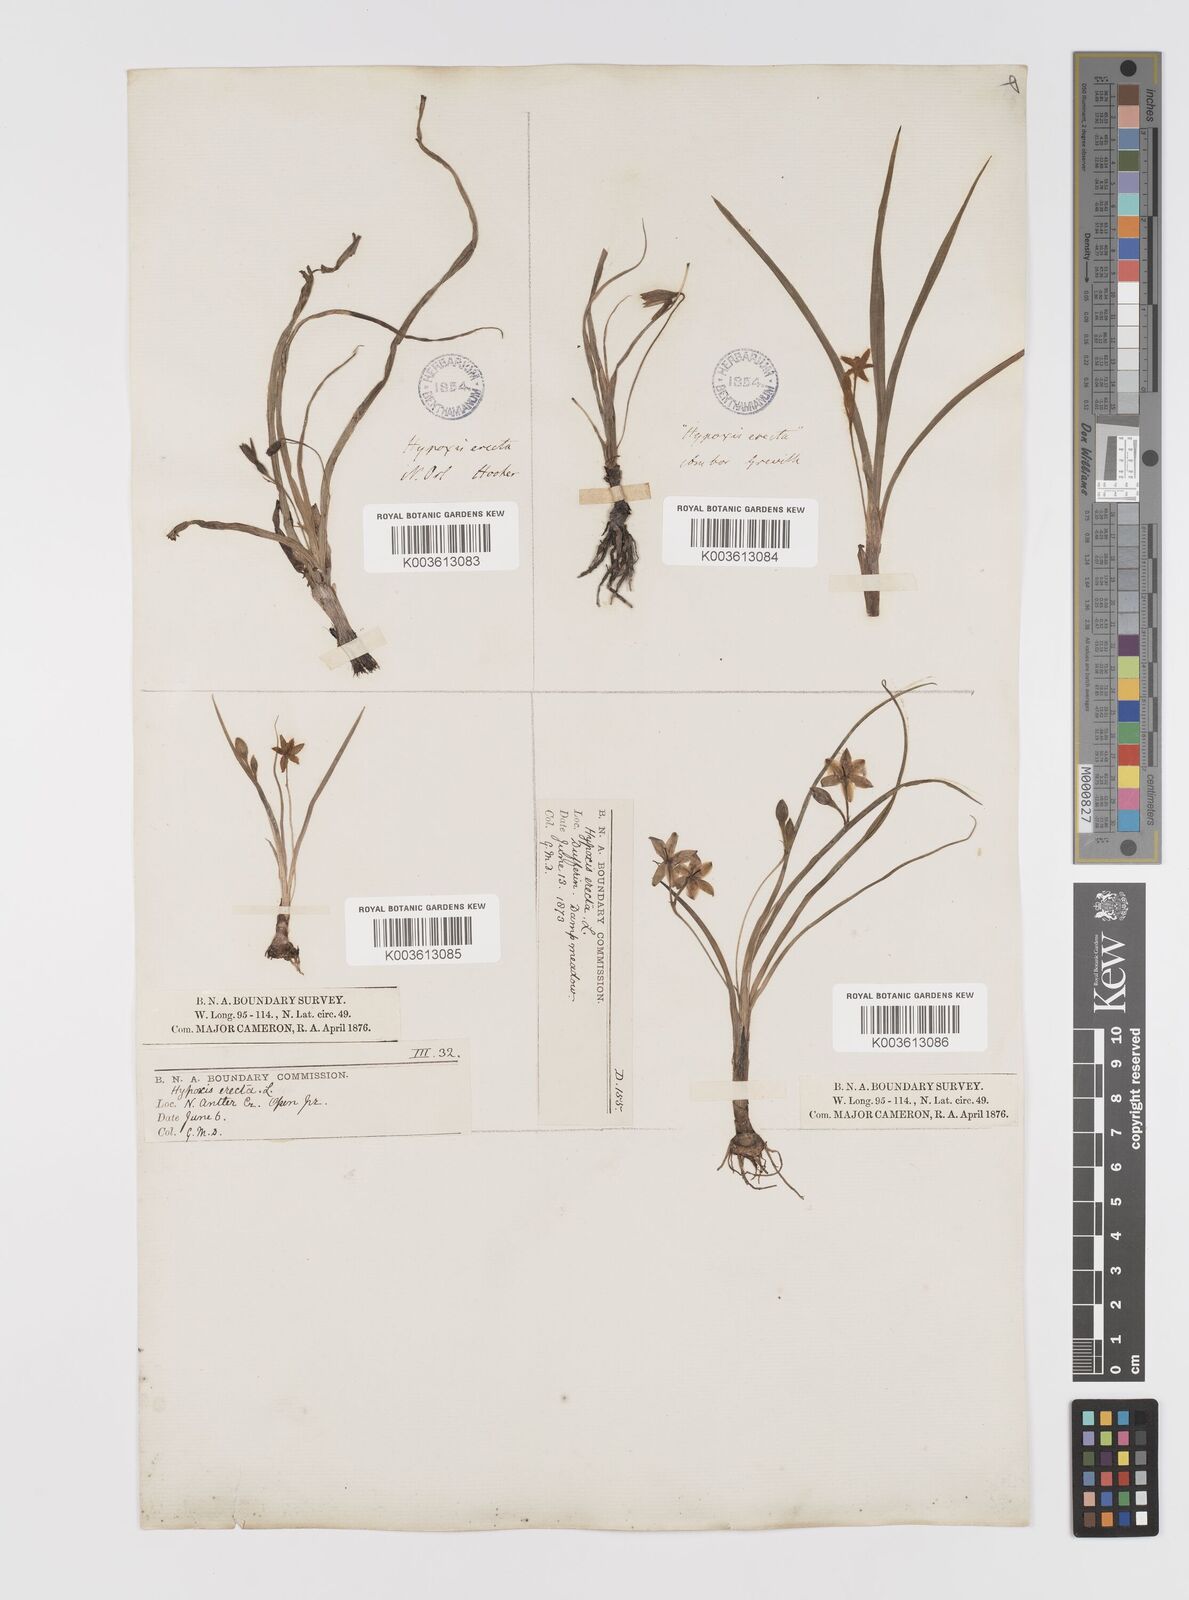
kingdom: Plantae
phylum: Tracheophyta
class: Liliopsida
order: Asparagales
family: Hypoxidaceae
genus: Hypoxis
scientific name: Hypoxis hirsuta
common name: Common goldstar
